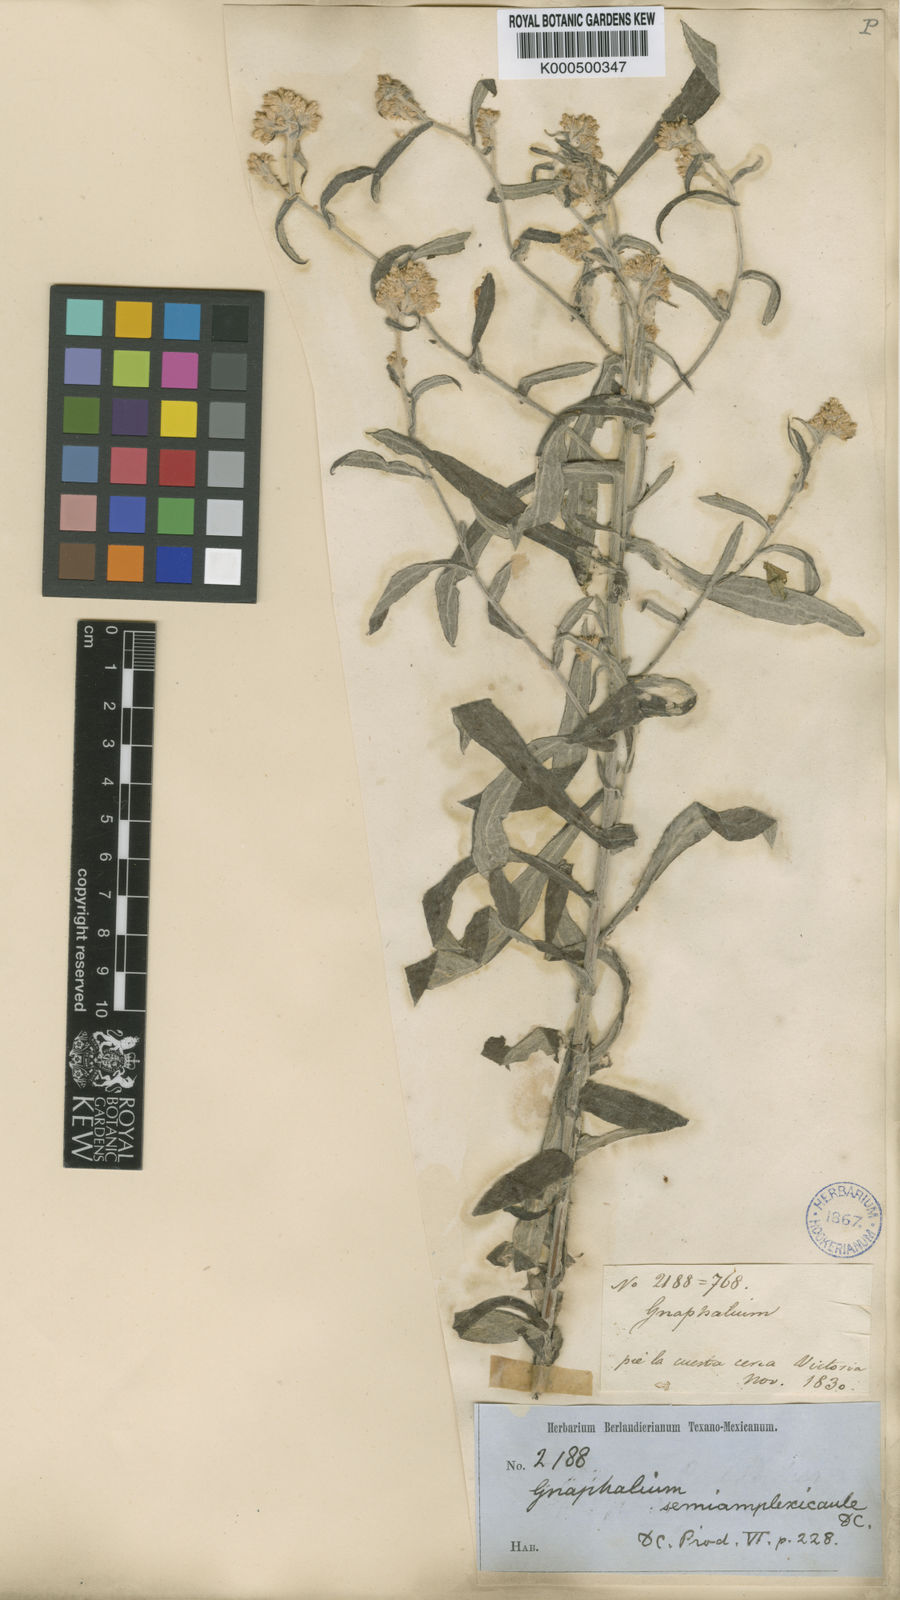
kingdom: Plantae
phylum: Tracheophyta
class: Magnoliopsida
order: Asterales
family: Asteraceae
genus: Pseudognaphalium
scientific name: Pseudognaphalium semiamplexicaule
